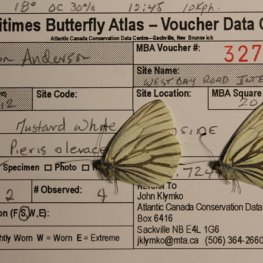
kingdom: Animalia
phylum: Arthropoda
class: Insecta
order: Lepidoptera
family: Pieridae
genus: Pieris
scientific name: Pieris oleracea
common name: Mustard White
